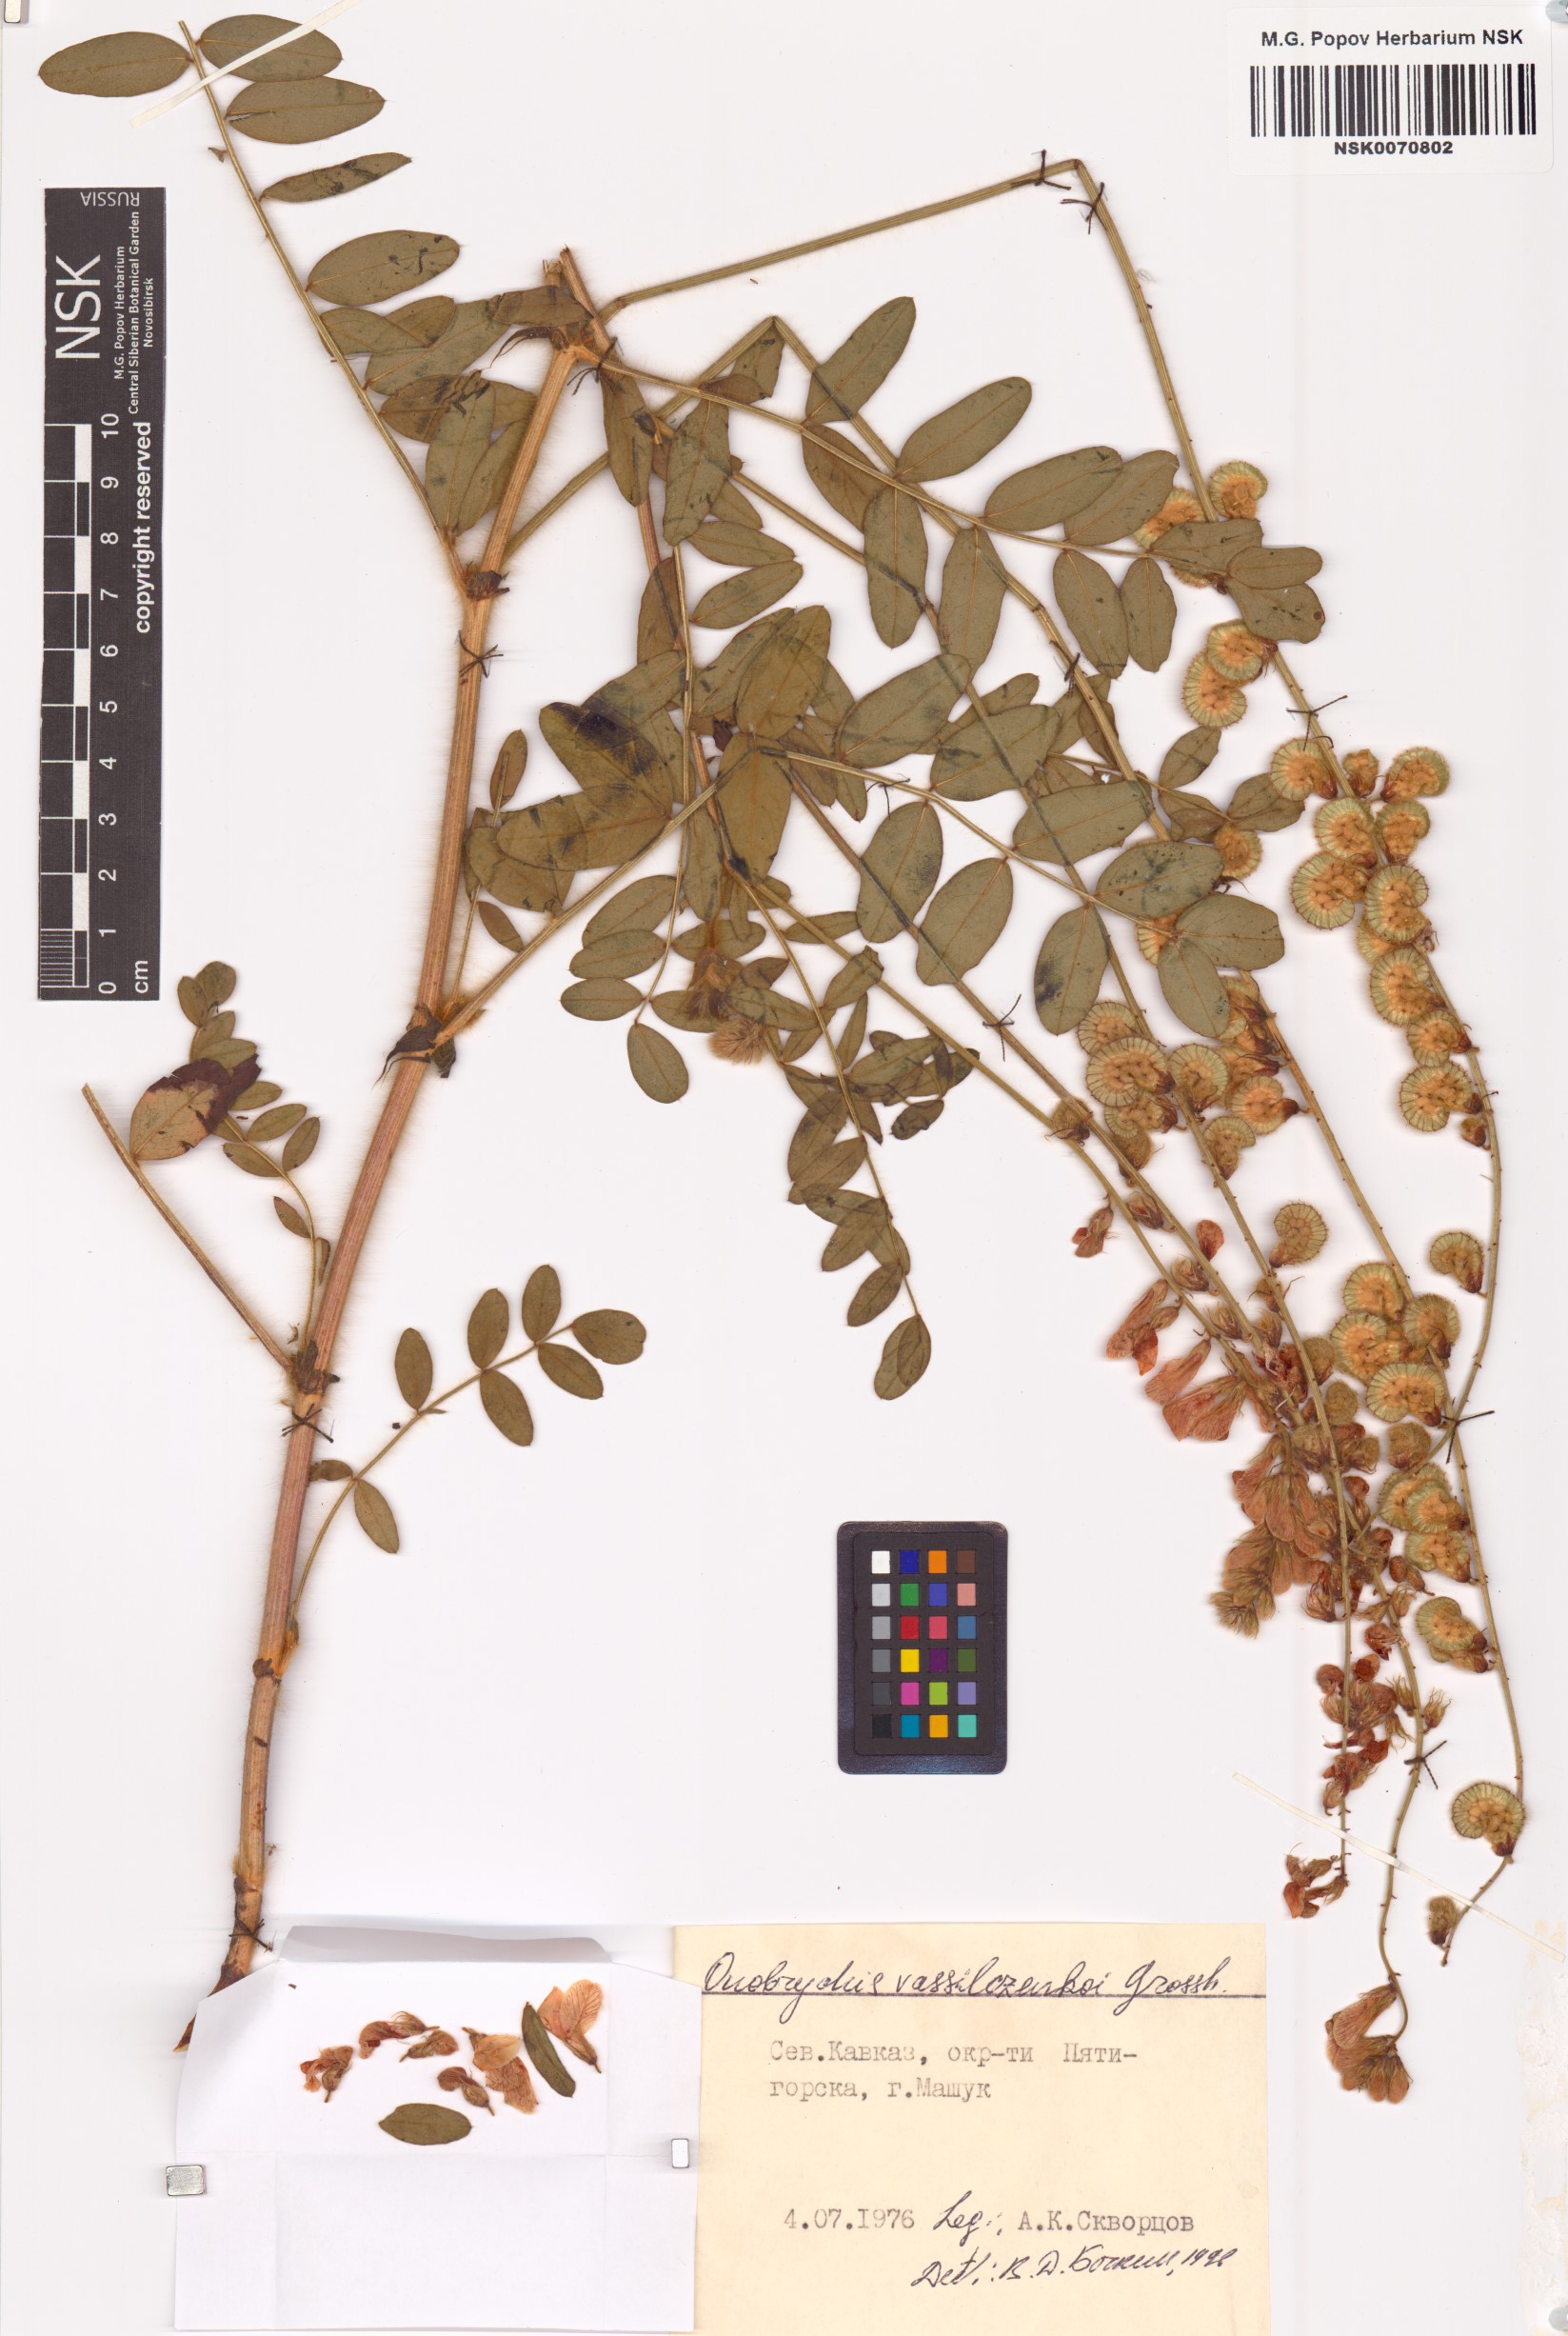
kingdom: Plantae
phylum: Tracheophyta
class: Magnoliopsida
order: Fabales
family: Fabaceae
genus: Onobrychis
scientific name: Onobrychis vassilczenkoi
